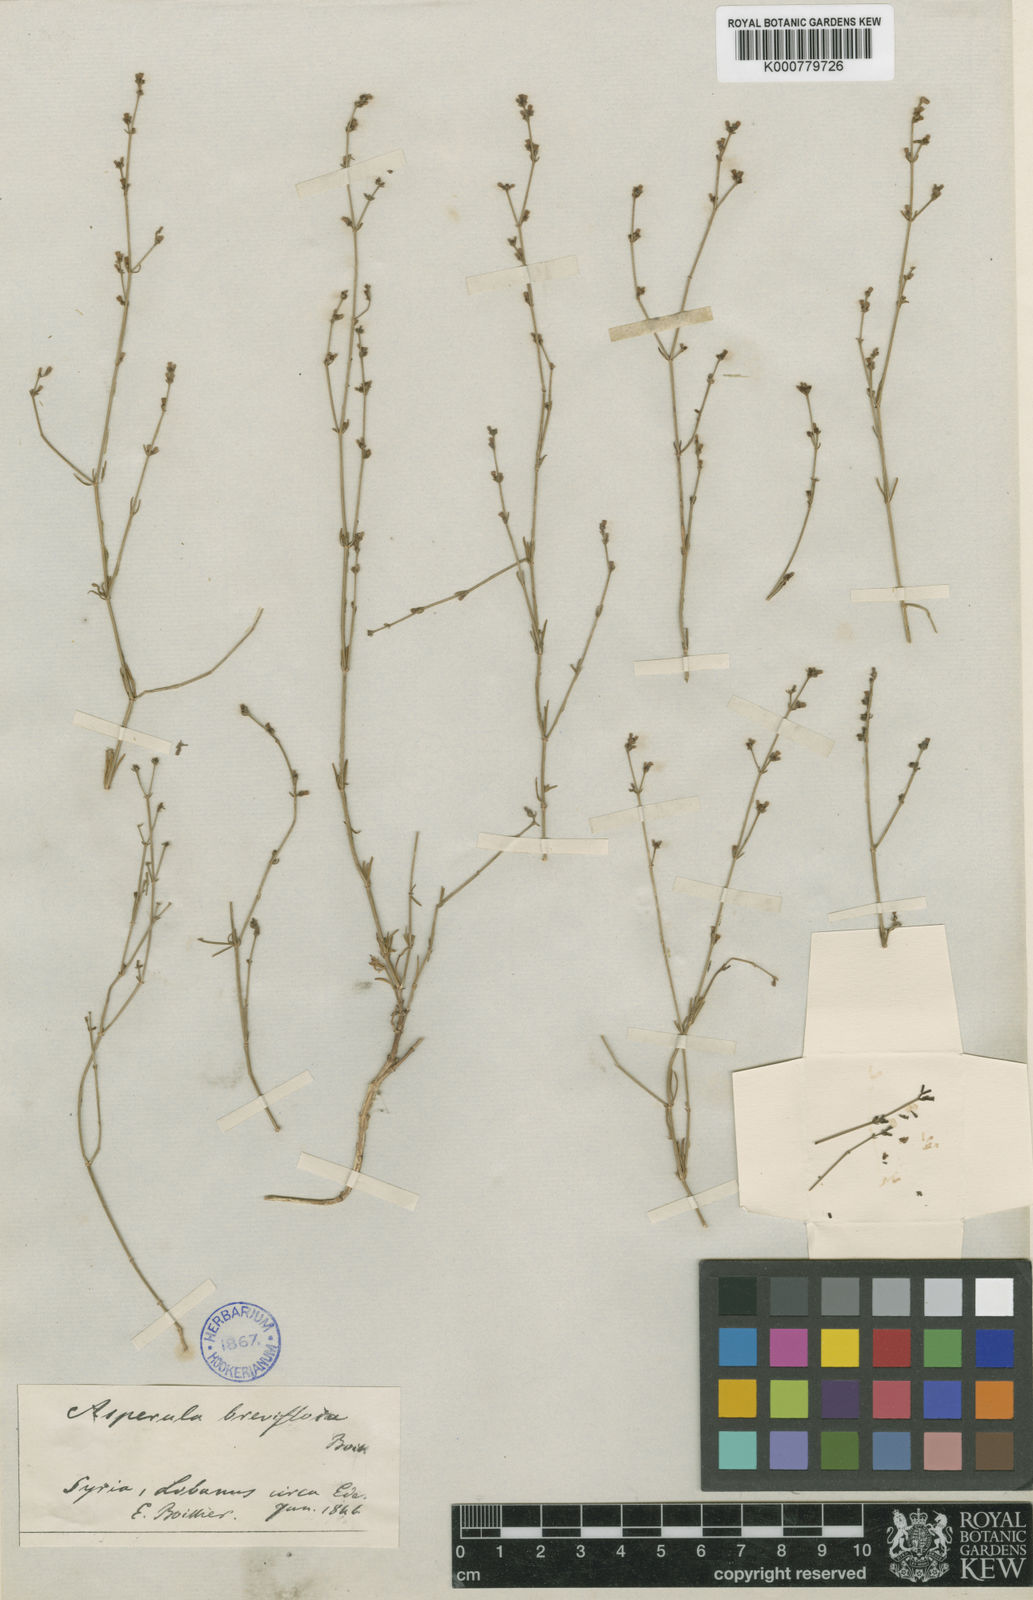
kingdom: Plantae
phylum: Tracheophyta
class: Magnoliopsida
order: Gentianales
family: Rubiaceae
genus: Cynanchica
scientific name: Cynanchica breviflora
